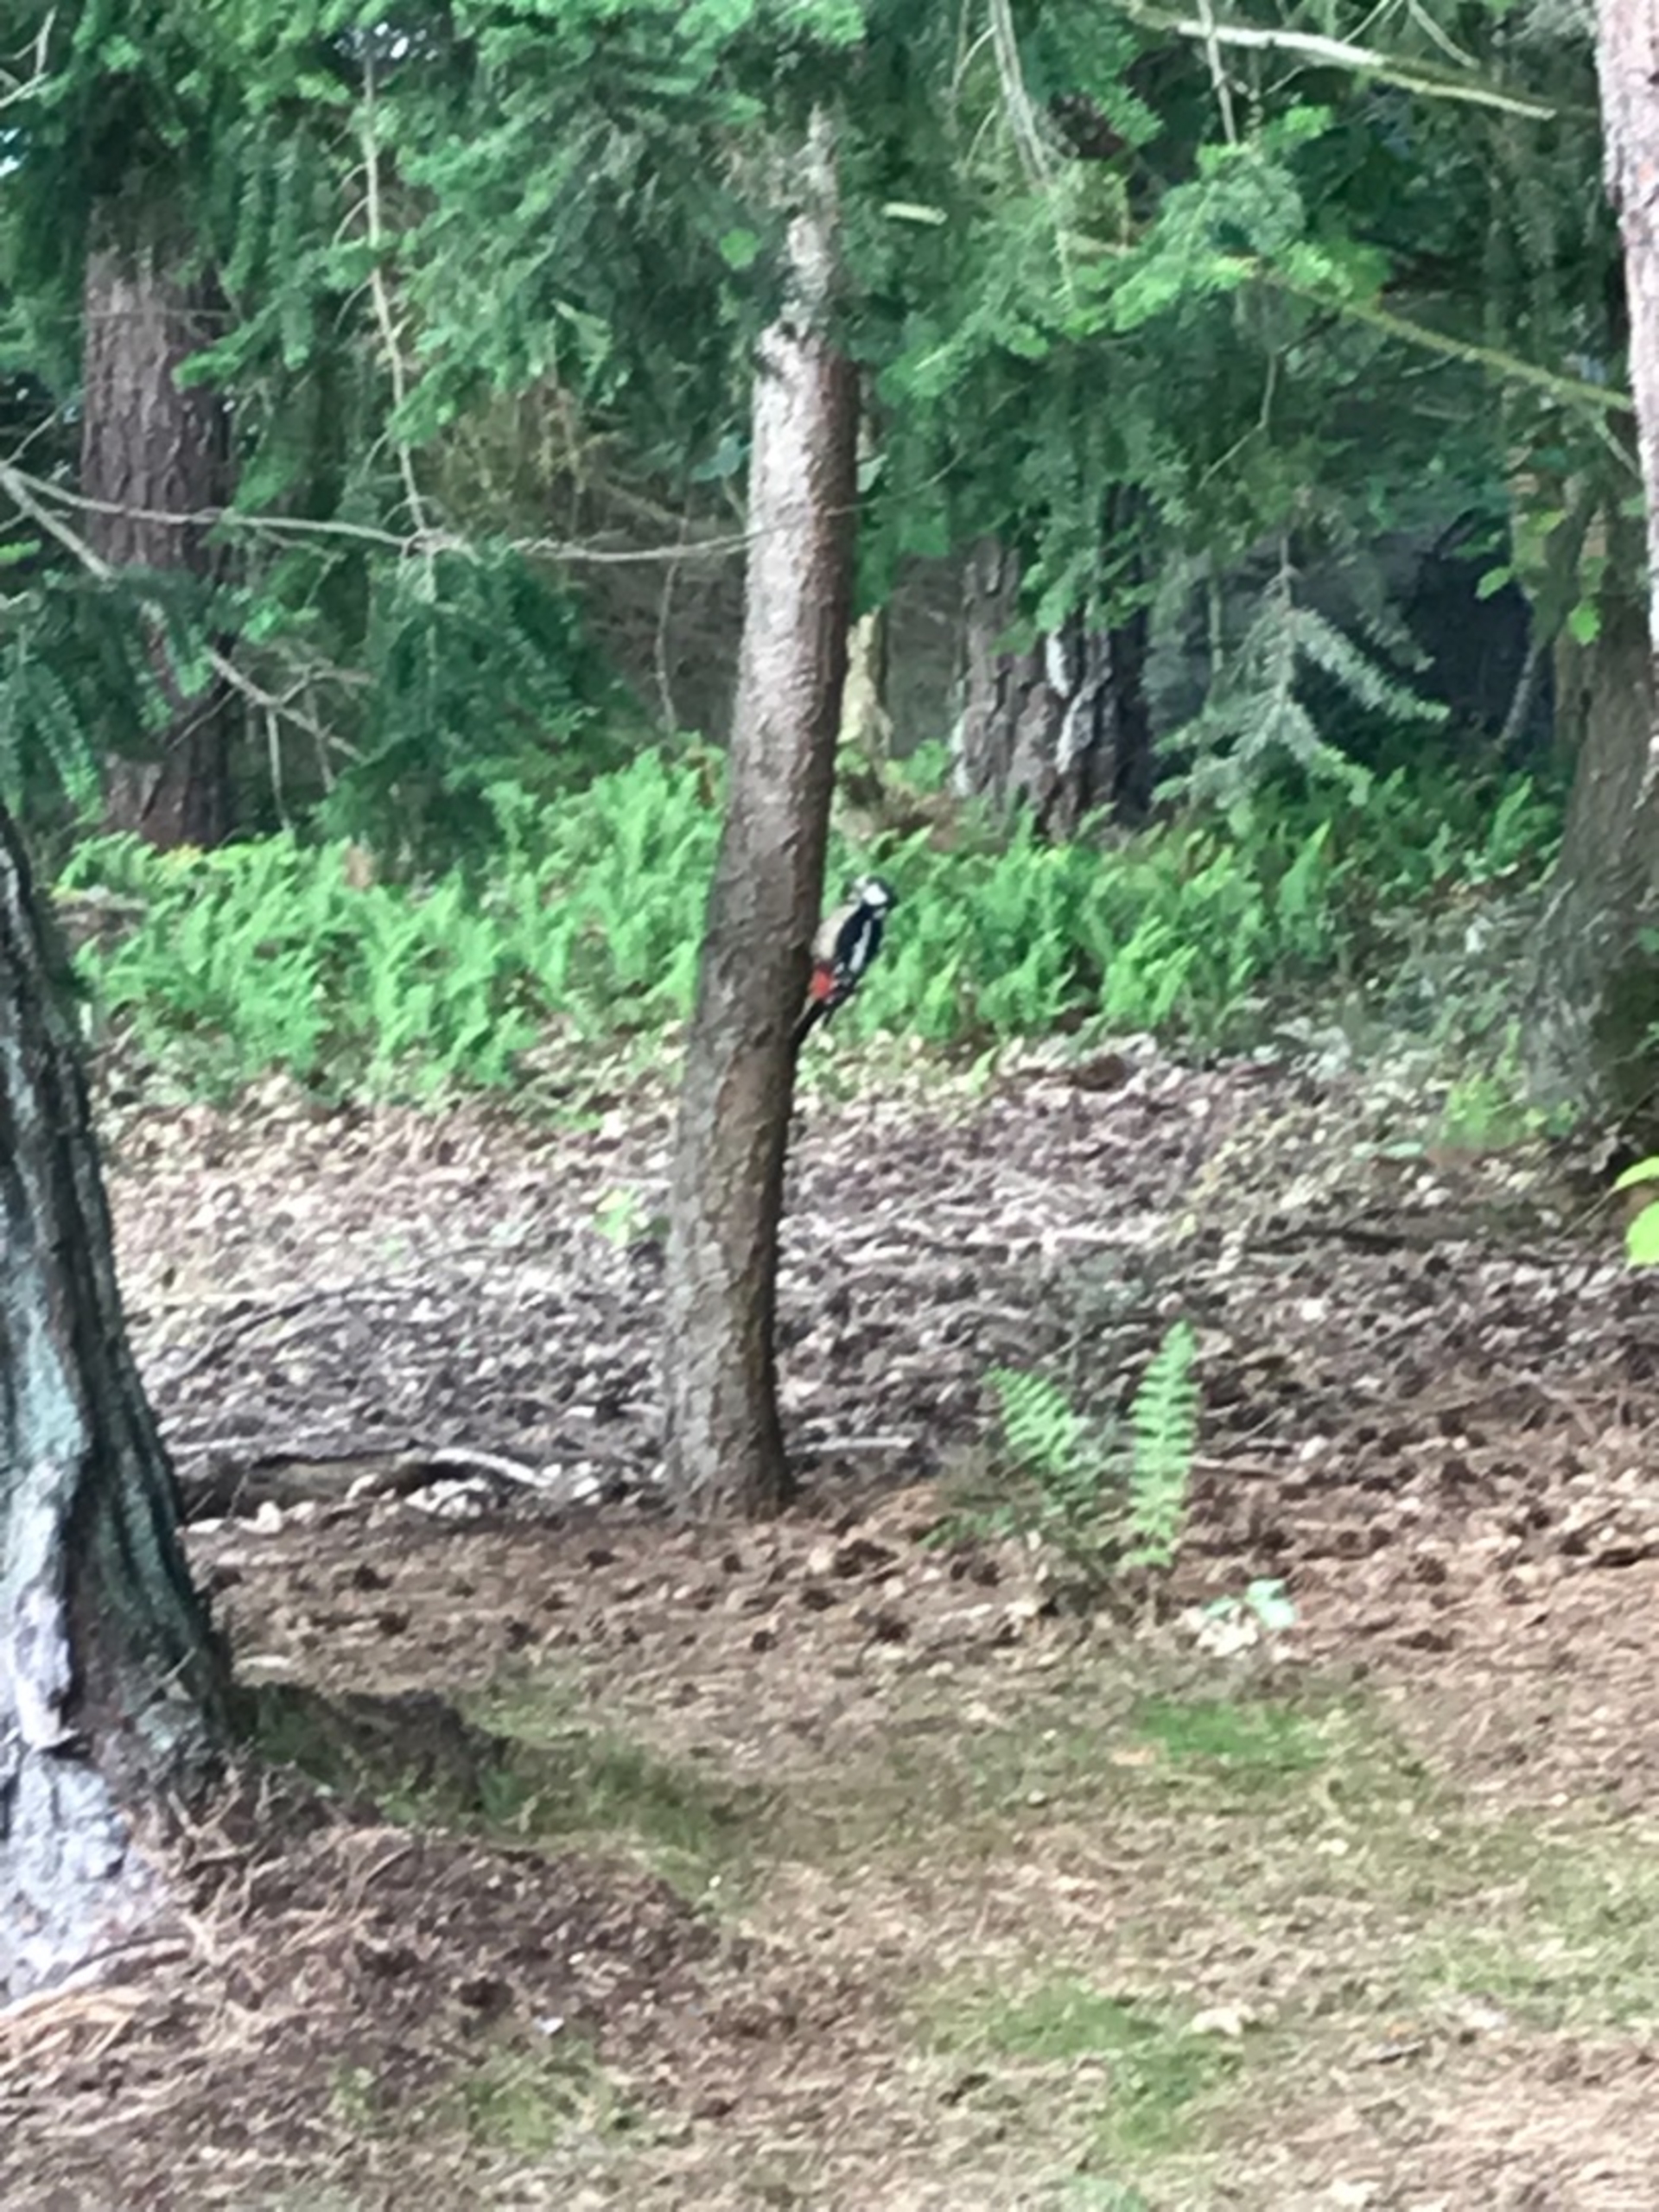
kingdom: Animalia
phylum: Chordata
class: Aves
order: Piciformes
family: Picidae
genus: Dendrocopos
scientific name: Dendrocopos major
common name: Stor flagspætte
